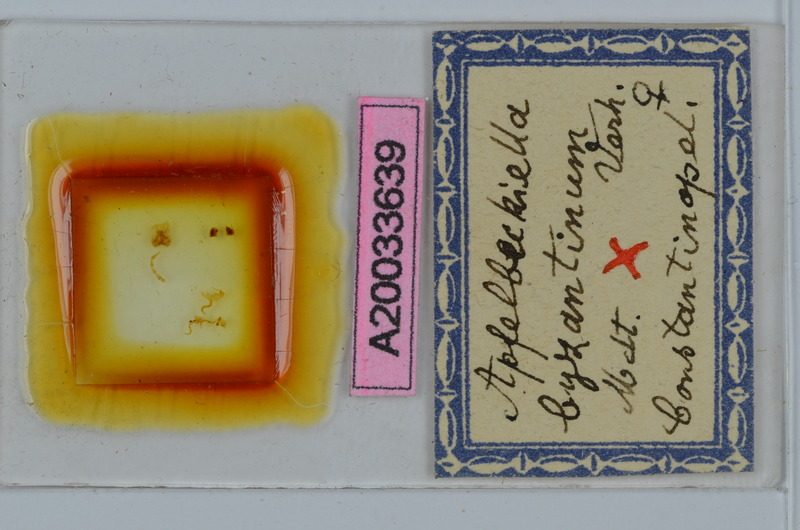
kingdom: Animalia
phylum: Arthropoda
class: Diplopoda
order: Julida
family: Julidae
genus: Apfelbeckiella
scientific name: Apfelbeckiella byzantina
